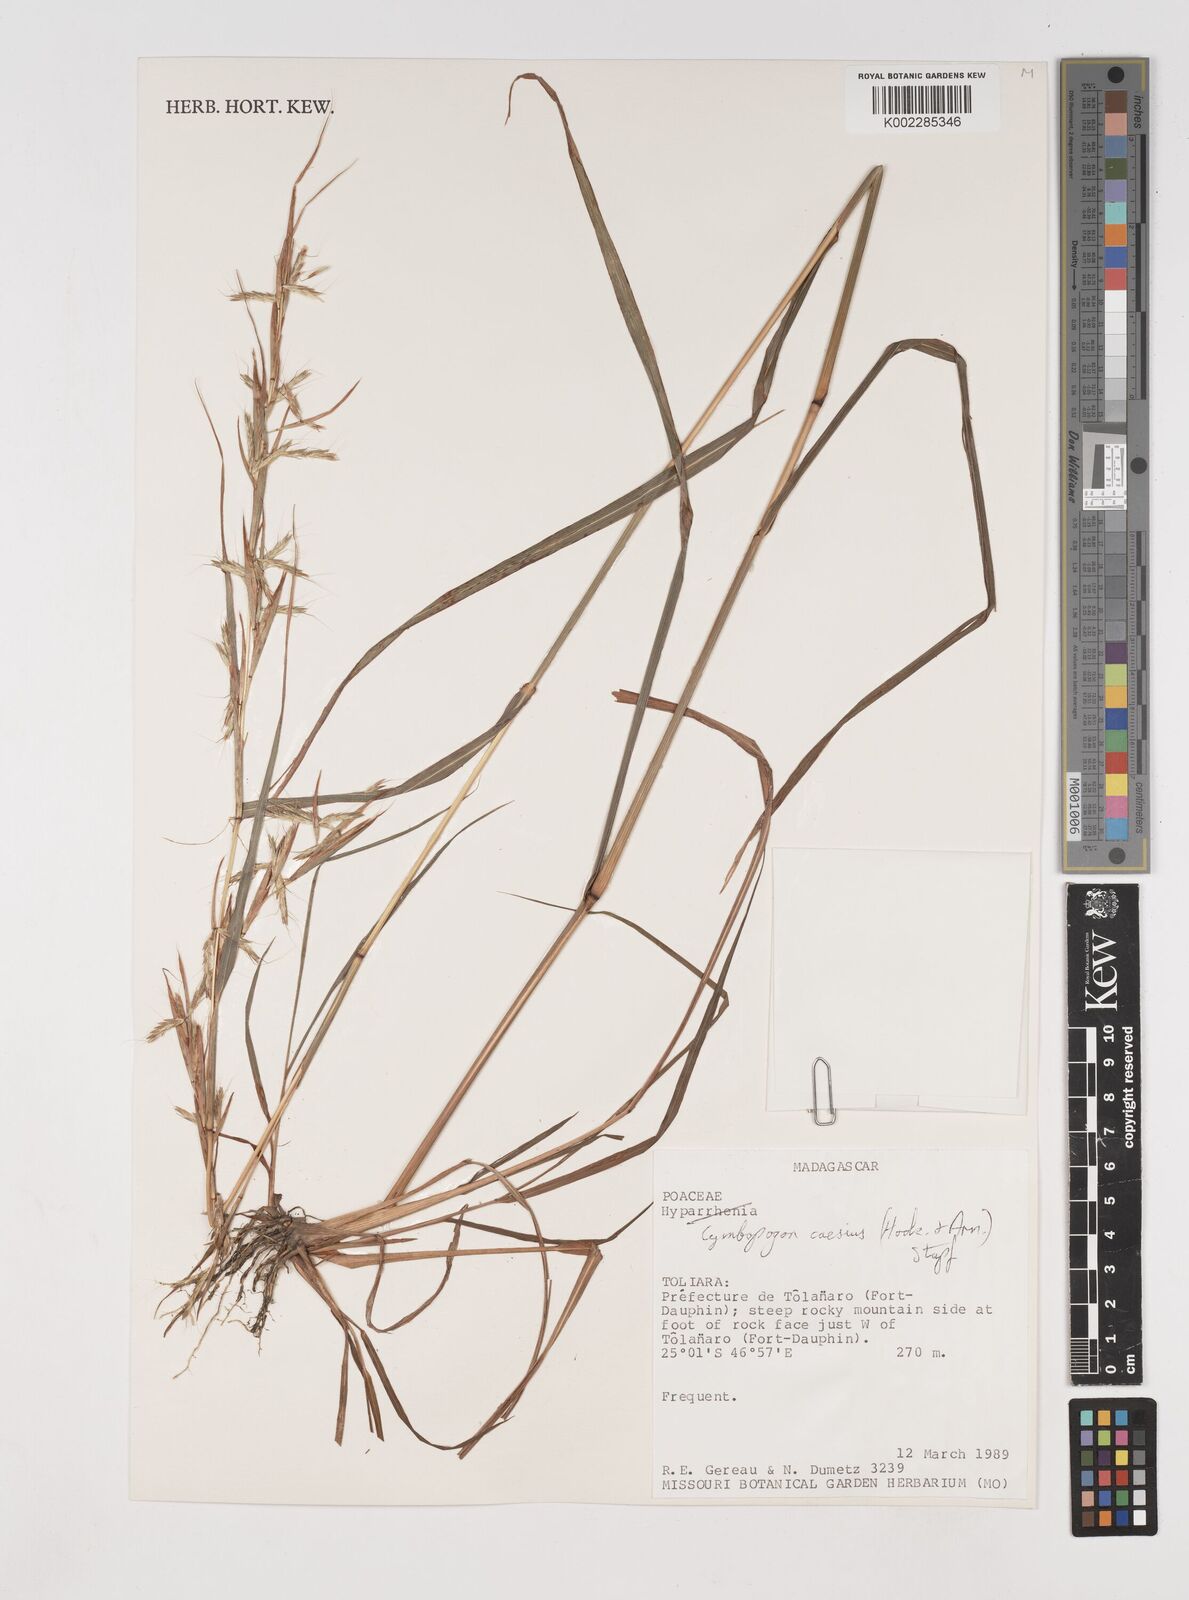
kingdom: Plantae
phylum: Tracheophyta
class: Liliopsida
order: Poales
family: Poaceae
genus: Cymbopogon
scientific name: Cymbopogon caesius
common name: Kachi grass
